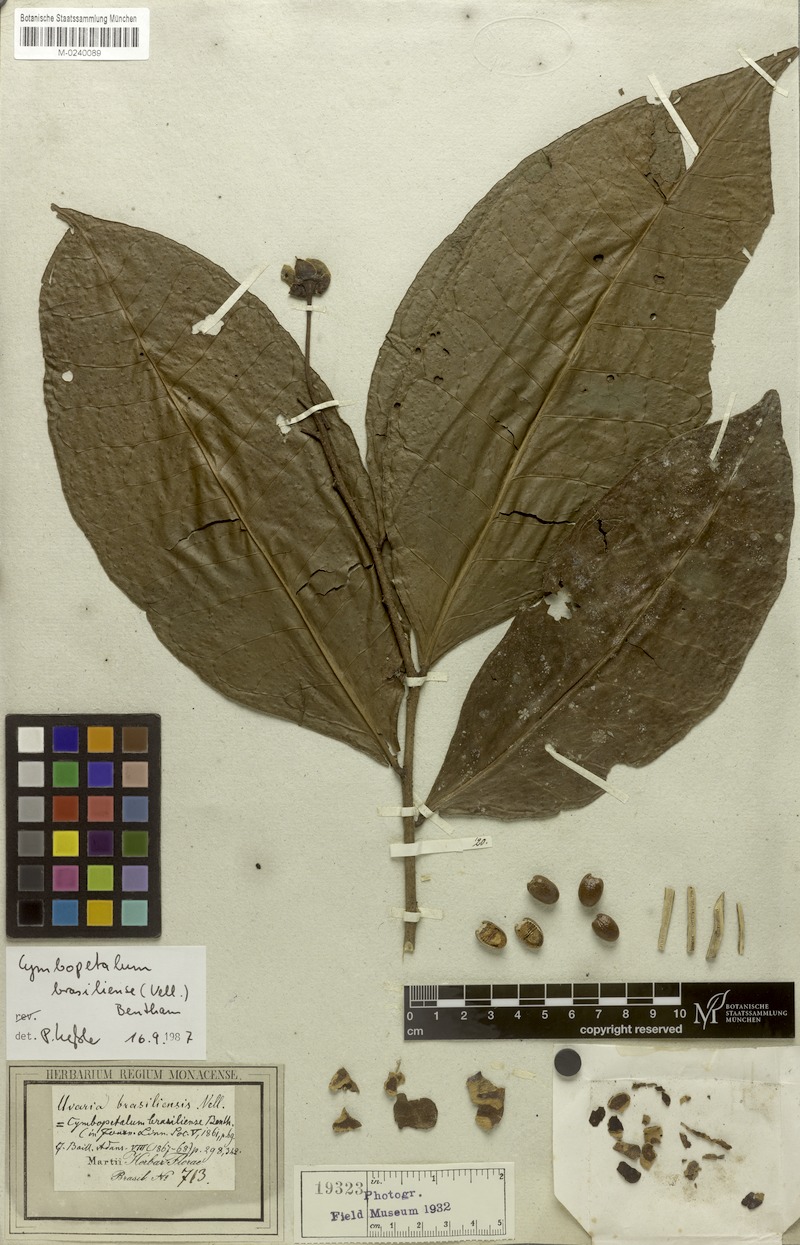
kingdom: Plantae
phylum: Tracheophyta
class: Magnoliopsida
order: Magnoliales
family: Annonaceae
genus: Cymbopetalum
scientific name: Cymbopetalum brasiliense
